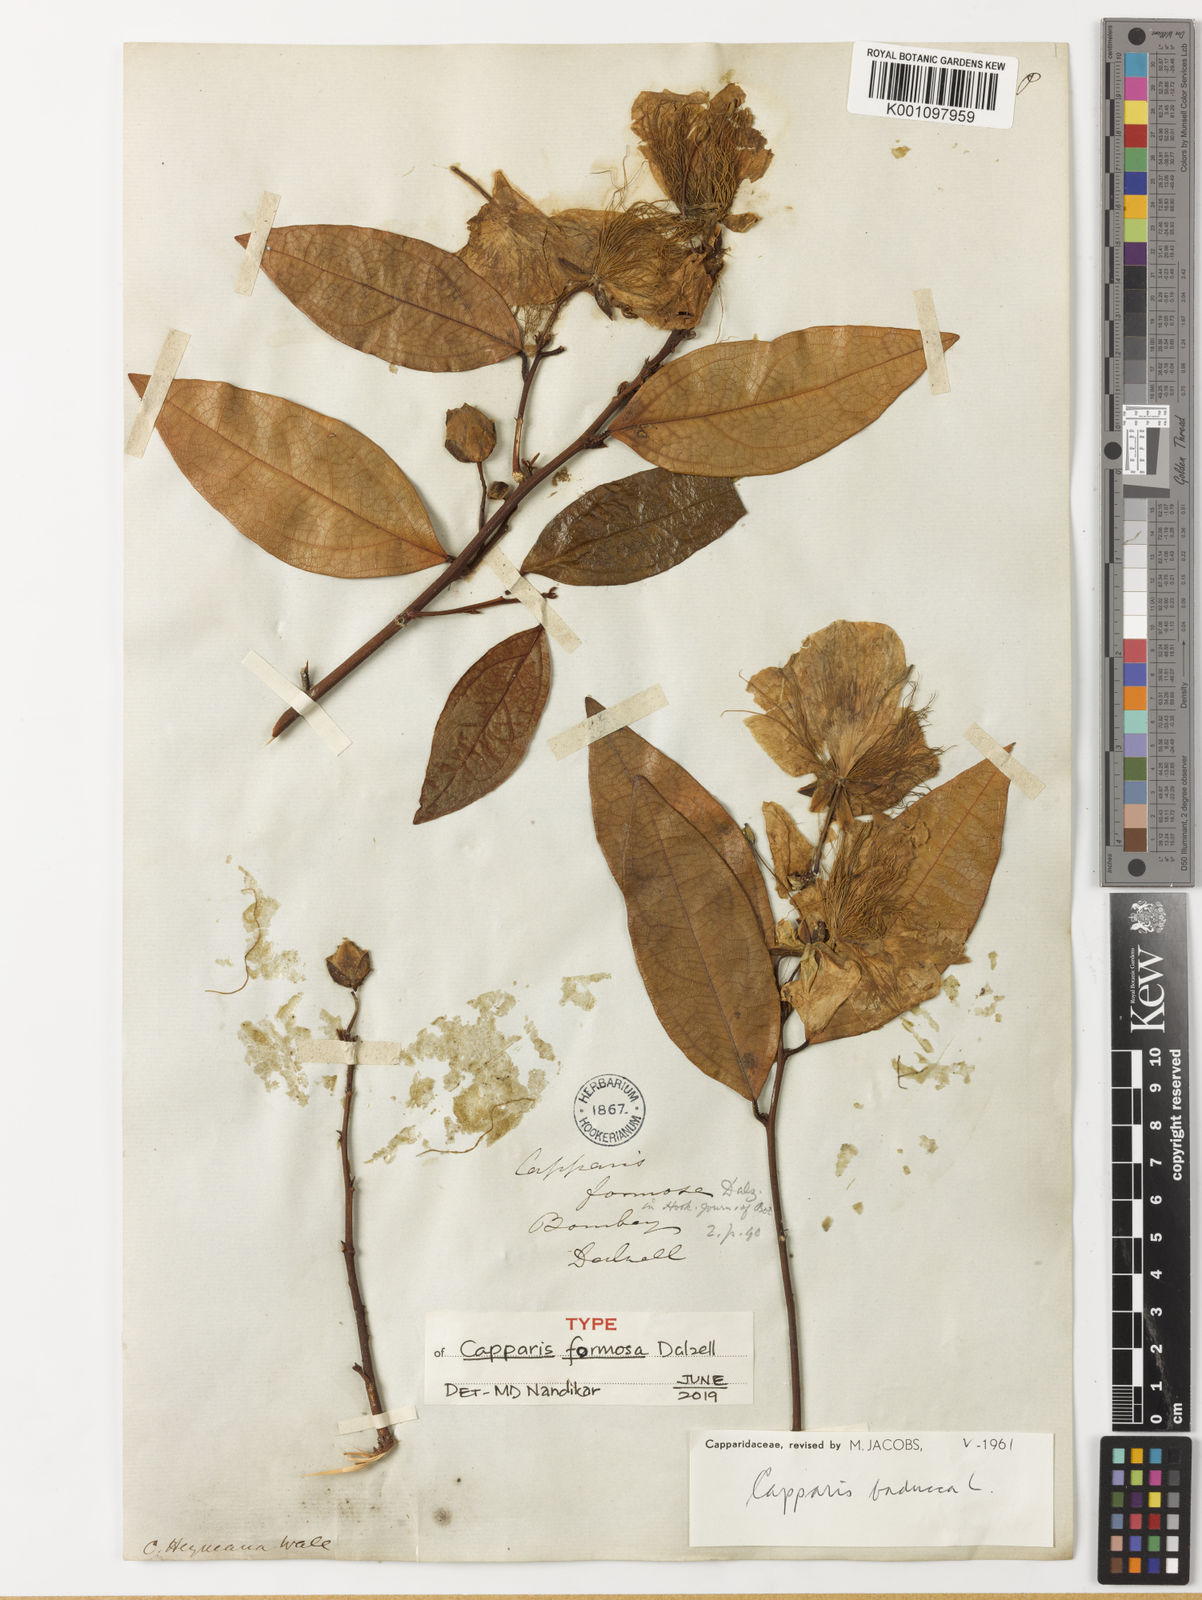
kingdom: Plantae
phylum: Tracheophyta
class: Magnoliopsida
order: Brassicales
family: Capparaceae
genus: Capparis
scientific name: Capparis rheedei
